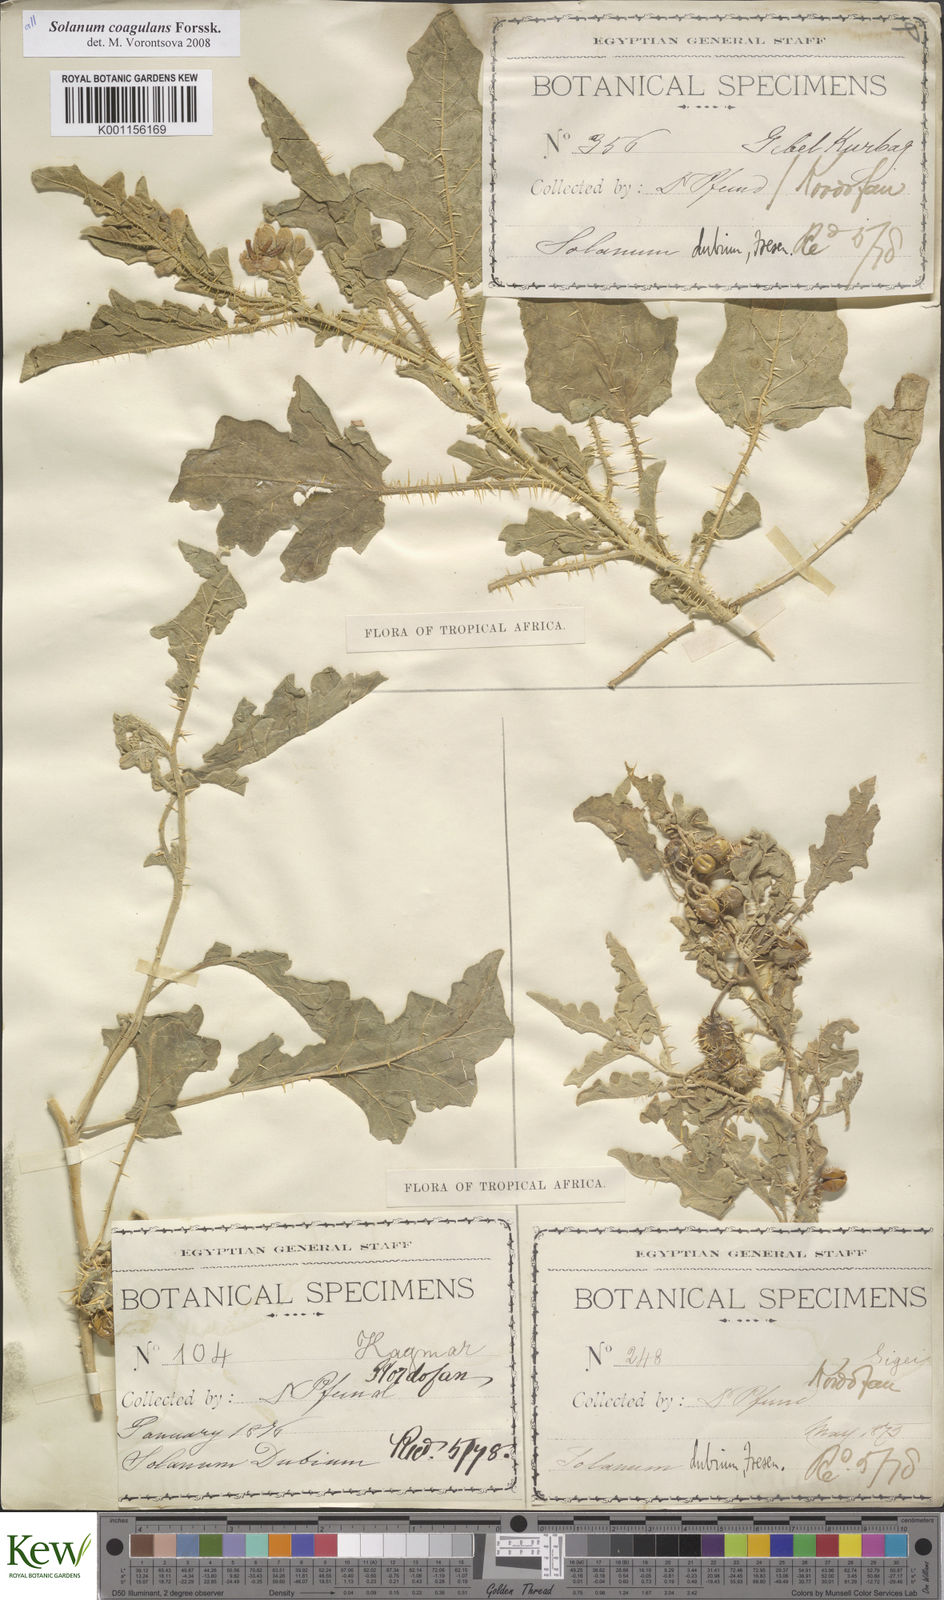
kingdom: Plantae
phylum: Tracheophyta
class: Magnoliopsida
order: Solanales
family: Solanaceae
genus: Solanum
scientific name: Solanum coagulans
